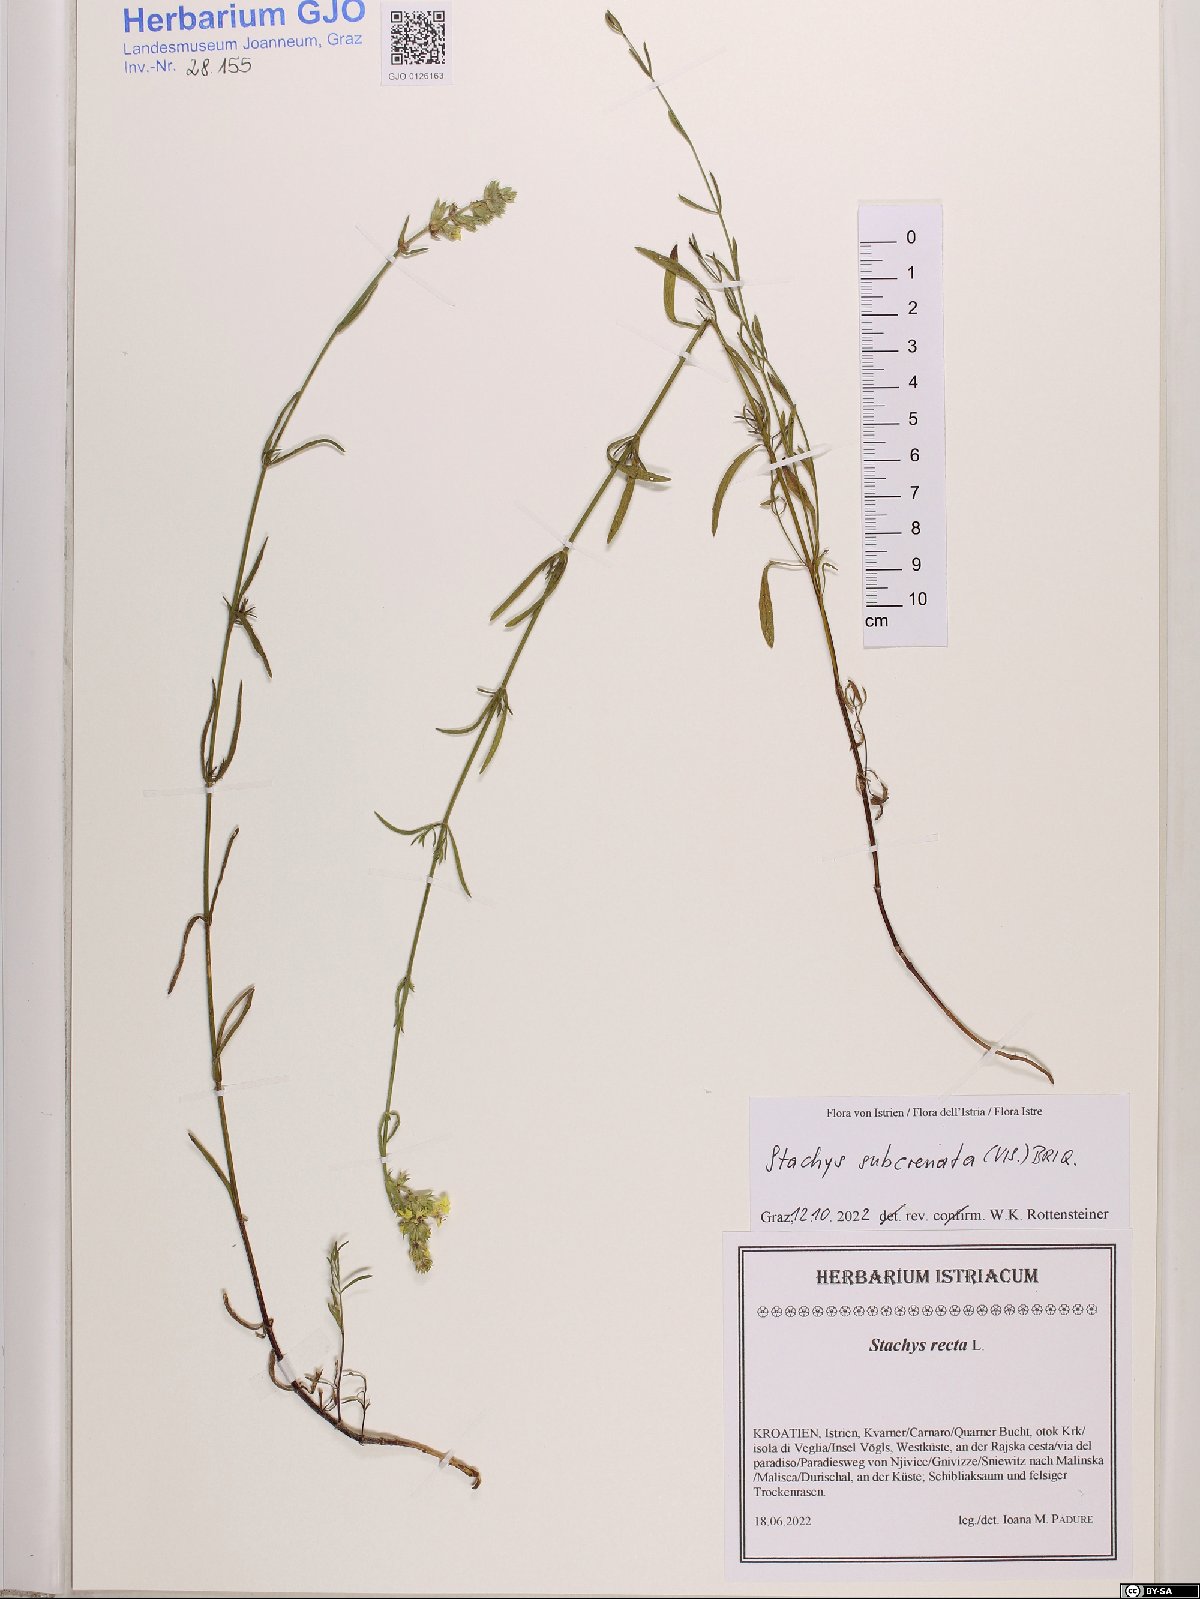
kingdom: Plantae
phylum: Tracheophyta
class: Magnoliopsida
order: Lamiales
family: Lamiaceae
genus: Stachys
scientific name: Stachys recta
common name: Perennial yellow-woundwort
